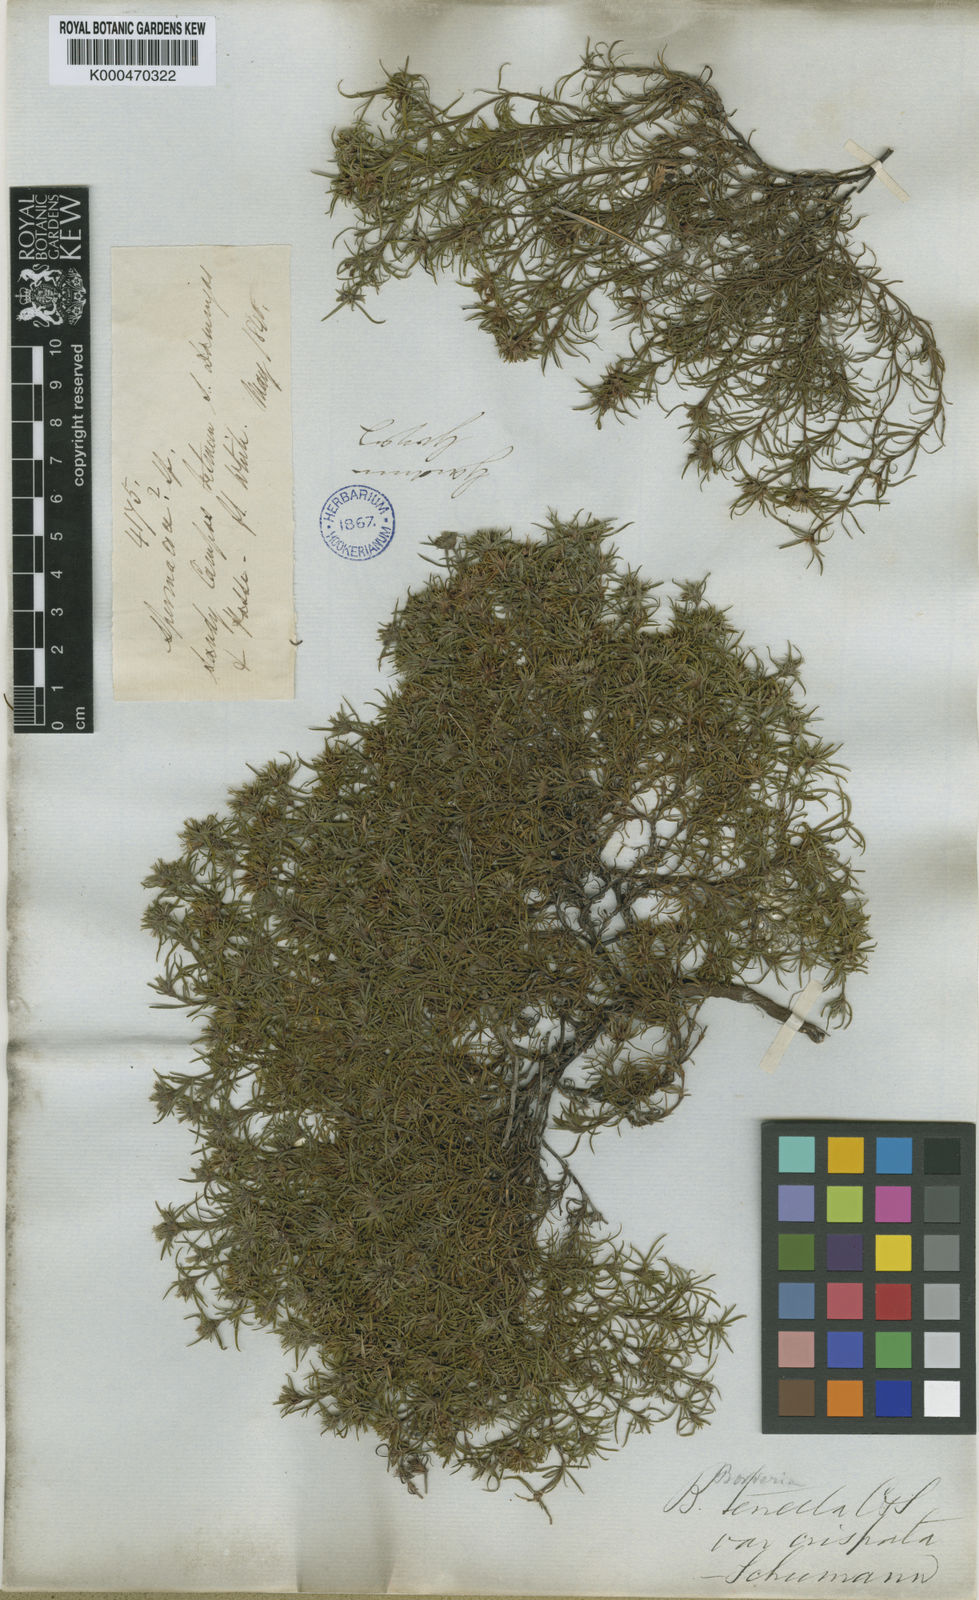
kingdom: Plantae
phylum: Tracheophyta
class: Magnoliopsida
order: Gentianales
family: Rubiaceae
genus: Spermacoce
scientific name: Spermacoce crispata
